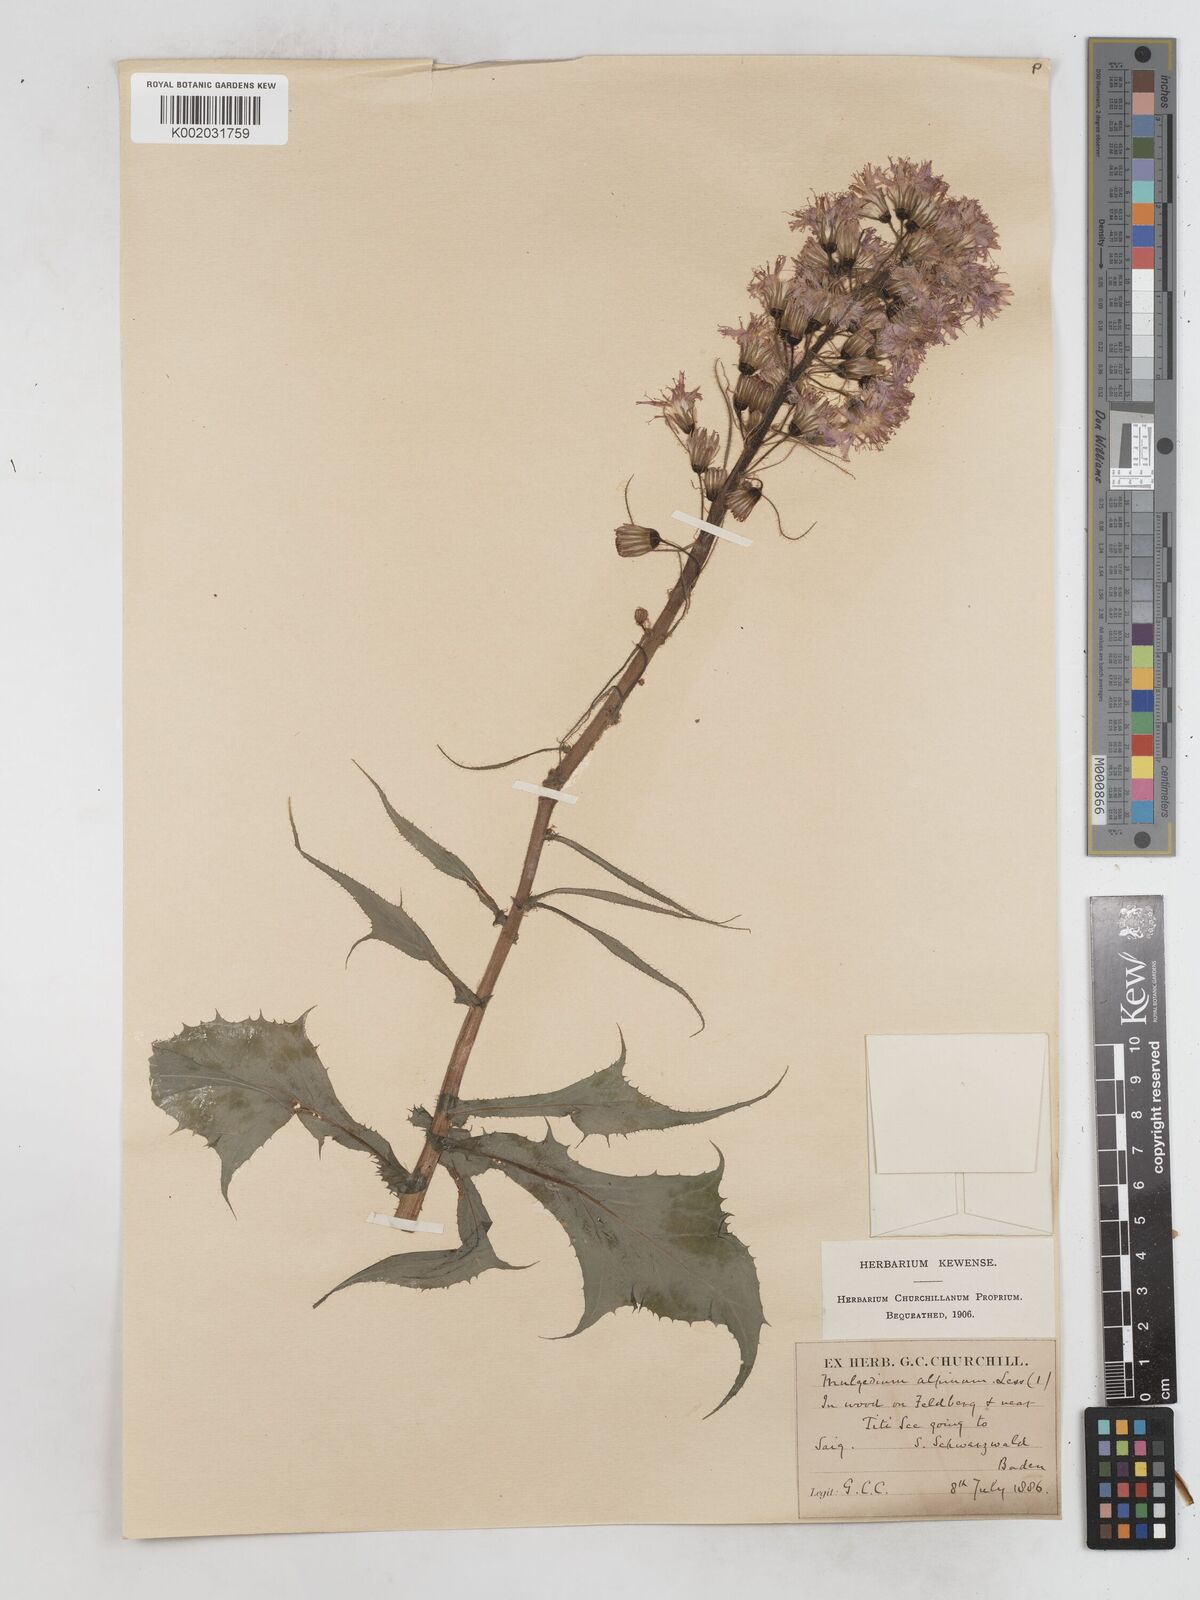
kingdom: Plantae
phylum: Tracheophyta
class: Magnoliopsida
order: Asterales
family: Asteraceae
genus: Cicerbita
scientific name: Cicerbita alpina
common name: Alpine blue-sow-thistle
